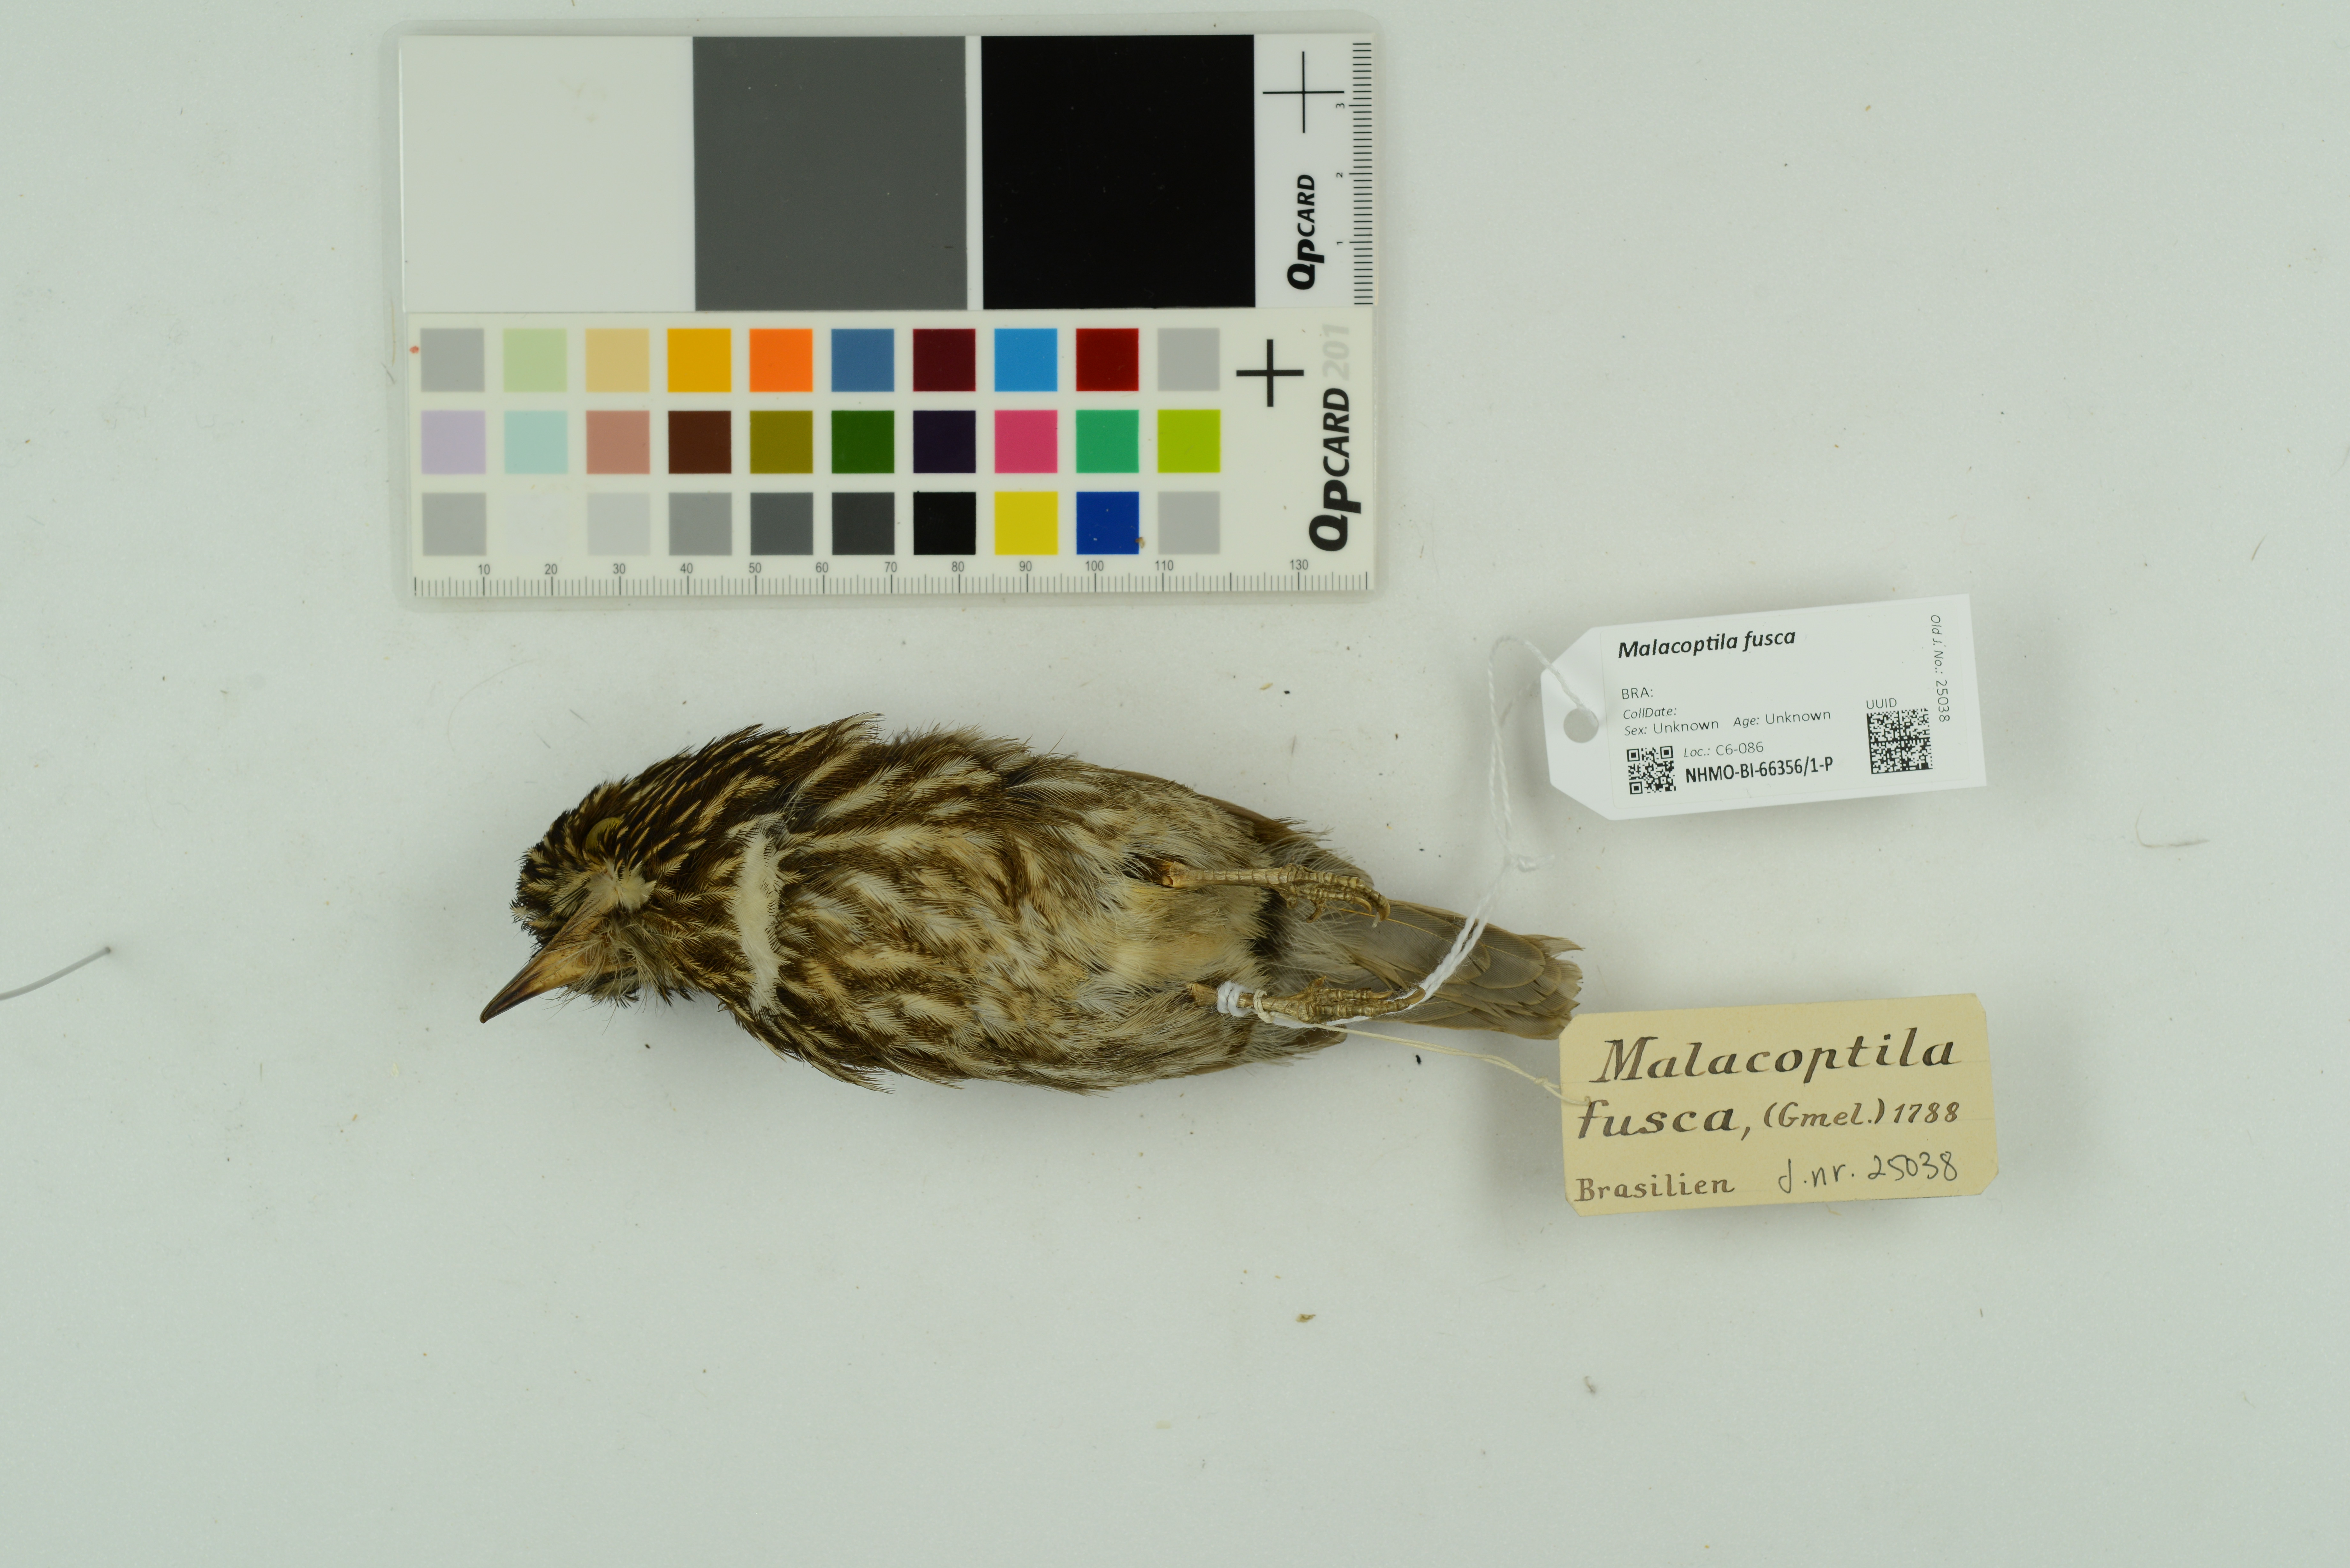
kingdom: Animalia
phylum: Chordata
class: Aves
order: Piciformes
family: Bucconidae
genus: Malacoptila
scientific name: Malacoptila fusca
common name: White-chested puffbird
